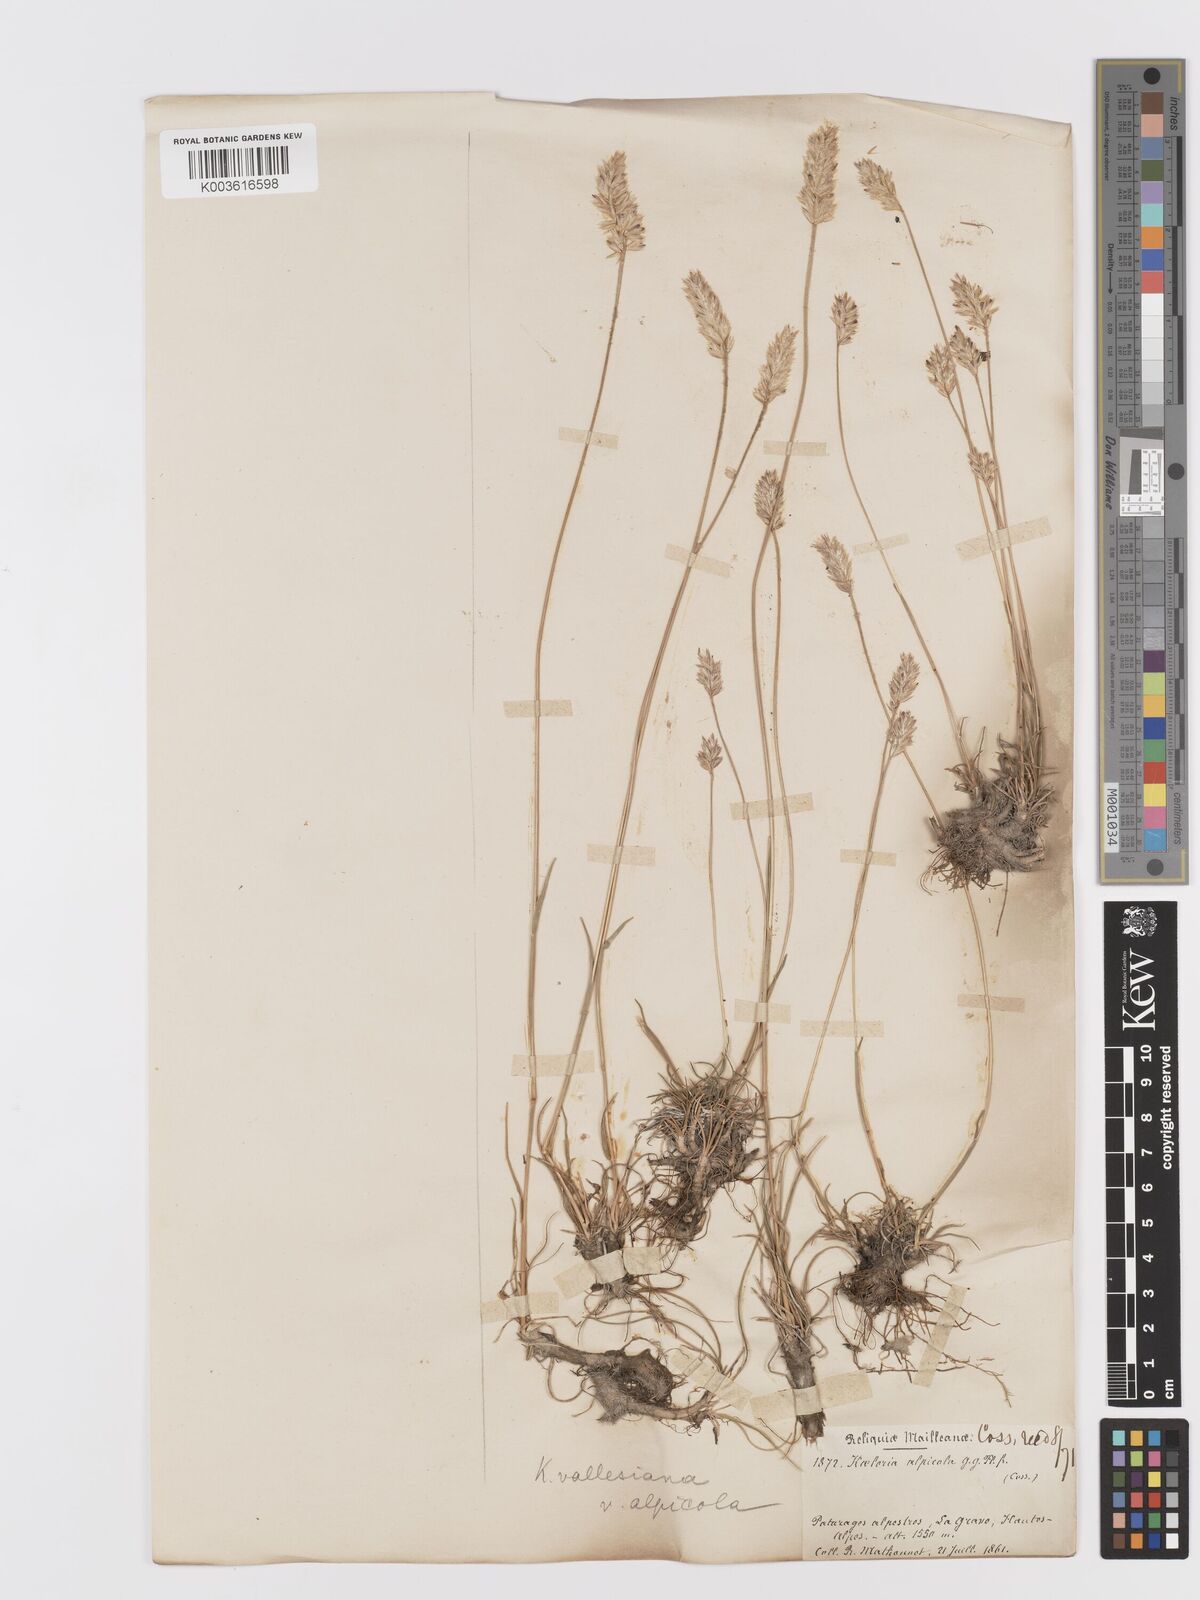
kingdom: Plantae
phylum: Tracheophyta
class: Liliopsida
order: Poales
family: Poaceae
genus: Koeleria
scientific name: Koeleria vallesiana
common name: Somerset hair-grass
